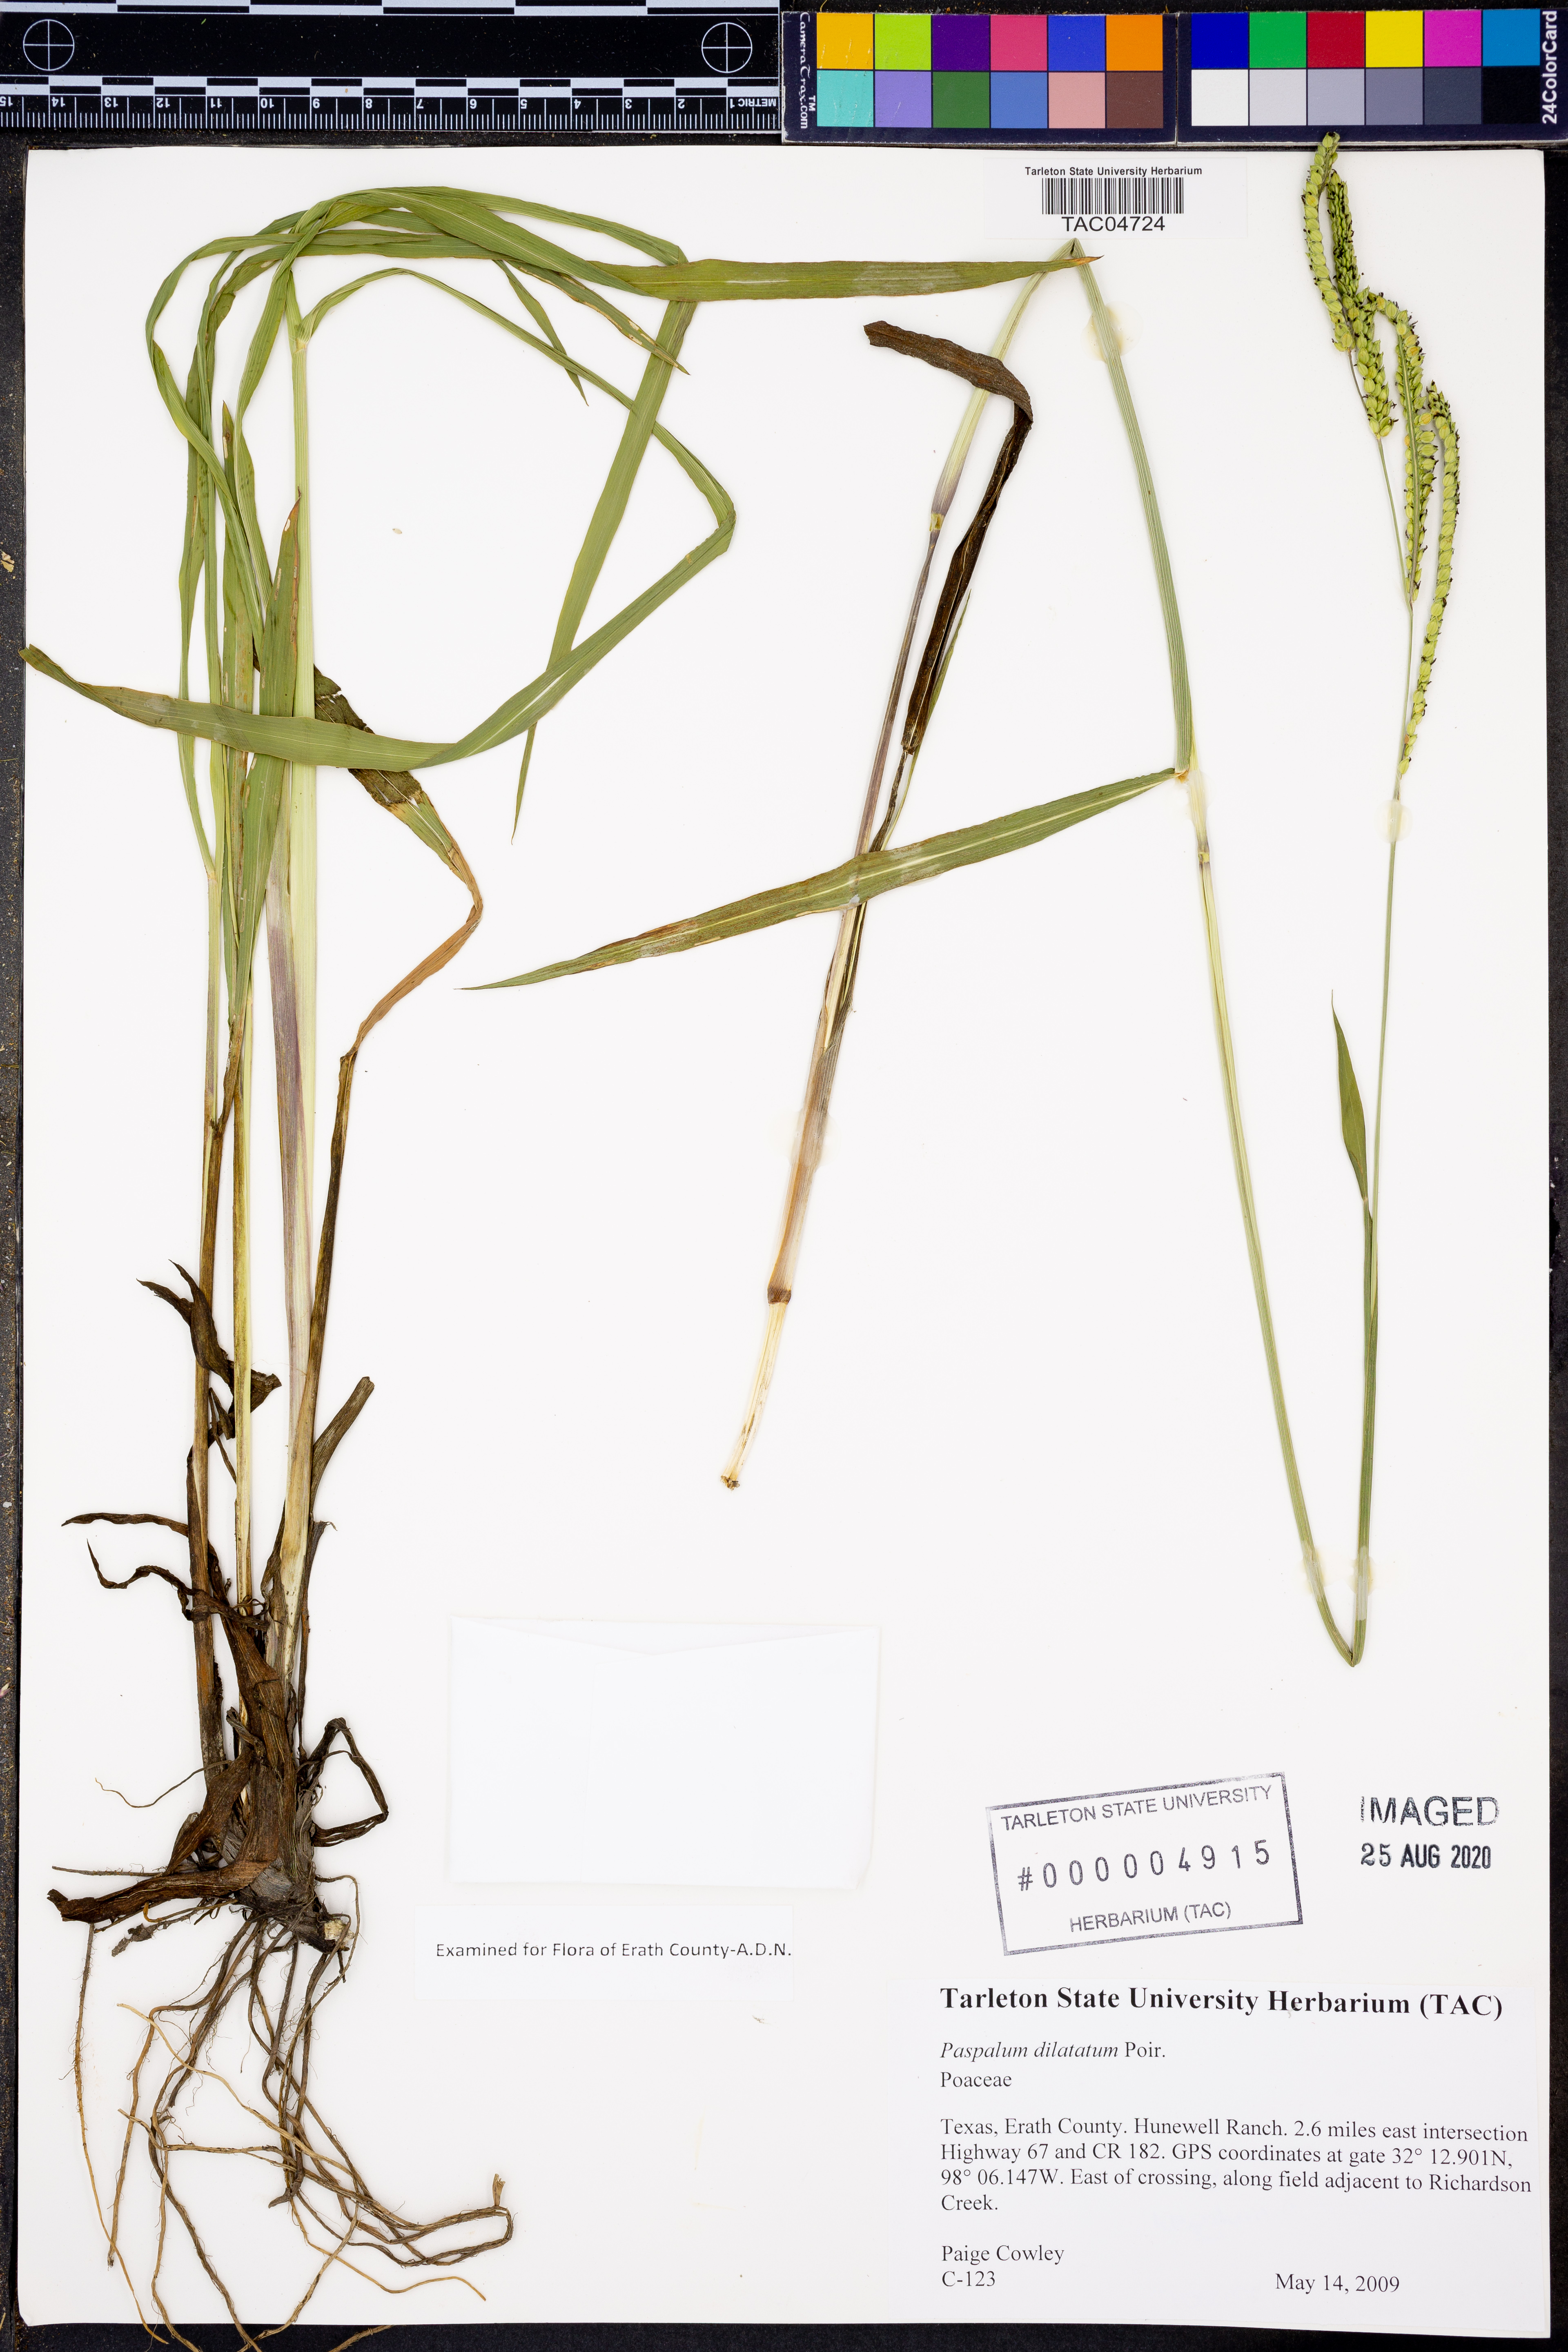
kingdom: Plantae
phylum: Tracheophyta
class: Liliopsida
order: Poales
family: Poaceae
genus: Paspalum
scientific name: Paspalum dilatatum
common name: Dallisgrass
